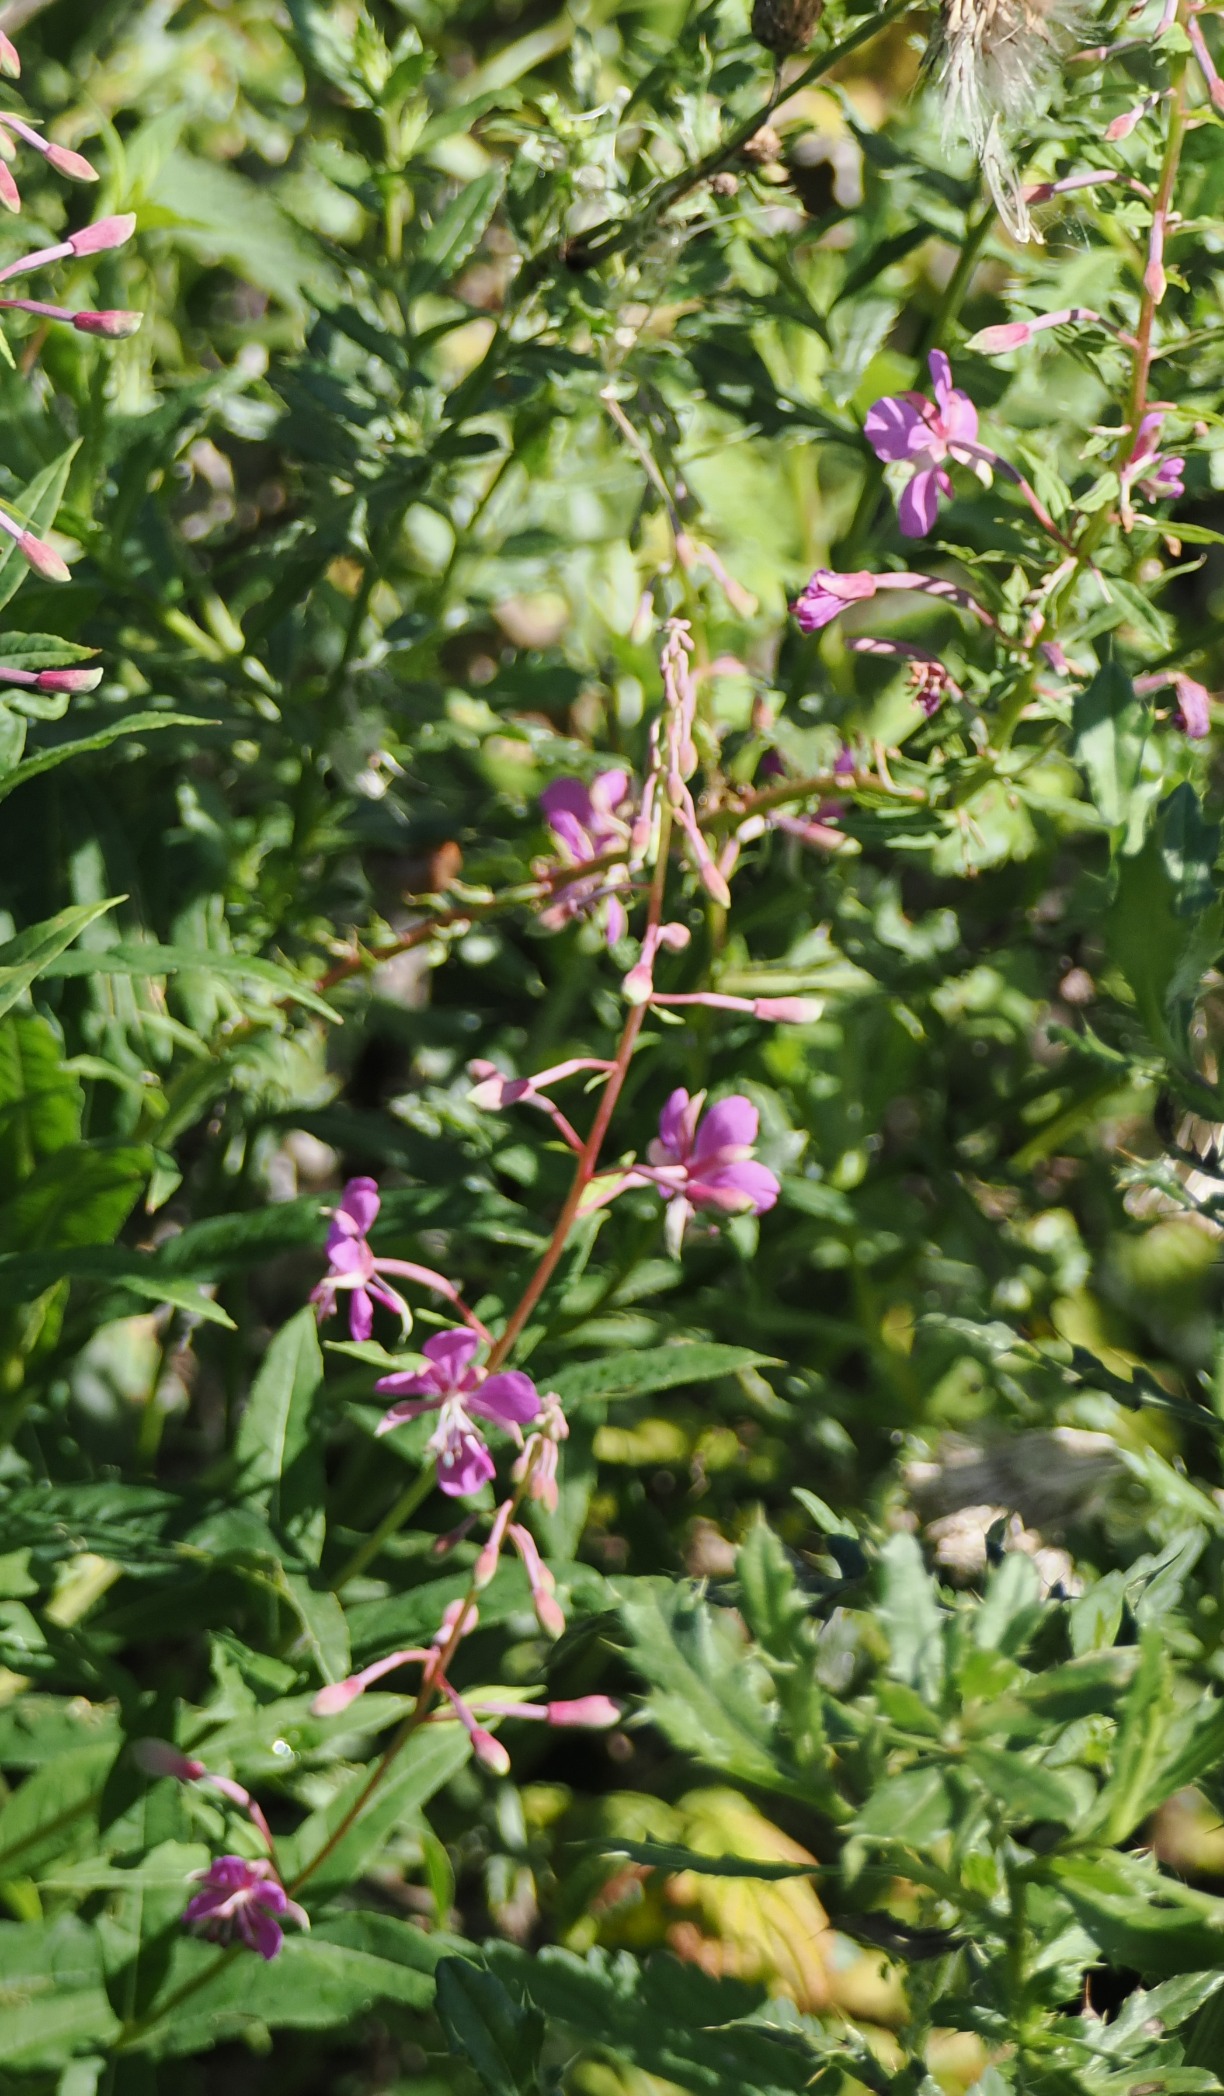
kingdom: Plantae
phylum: Tracheophyta
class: Magnoliopsida
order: Myrtales
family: Onagraceae
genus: Chamaenerion
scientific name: Chamaenerion angustifolium
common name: Gederams
